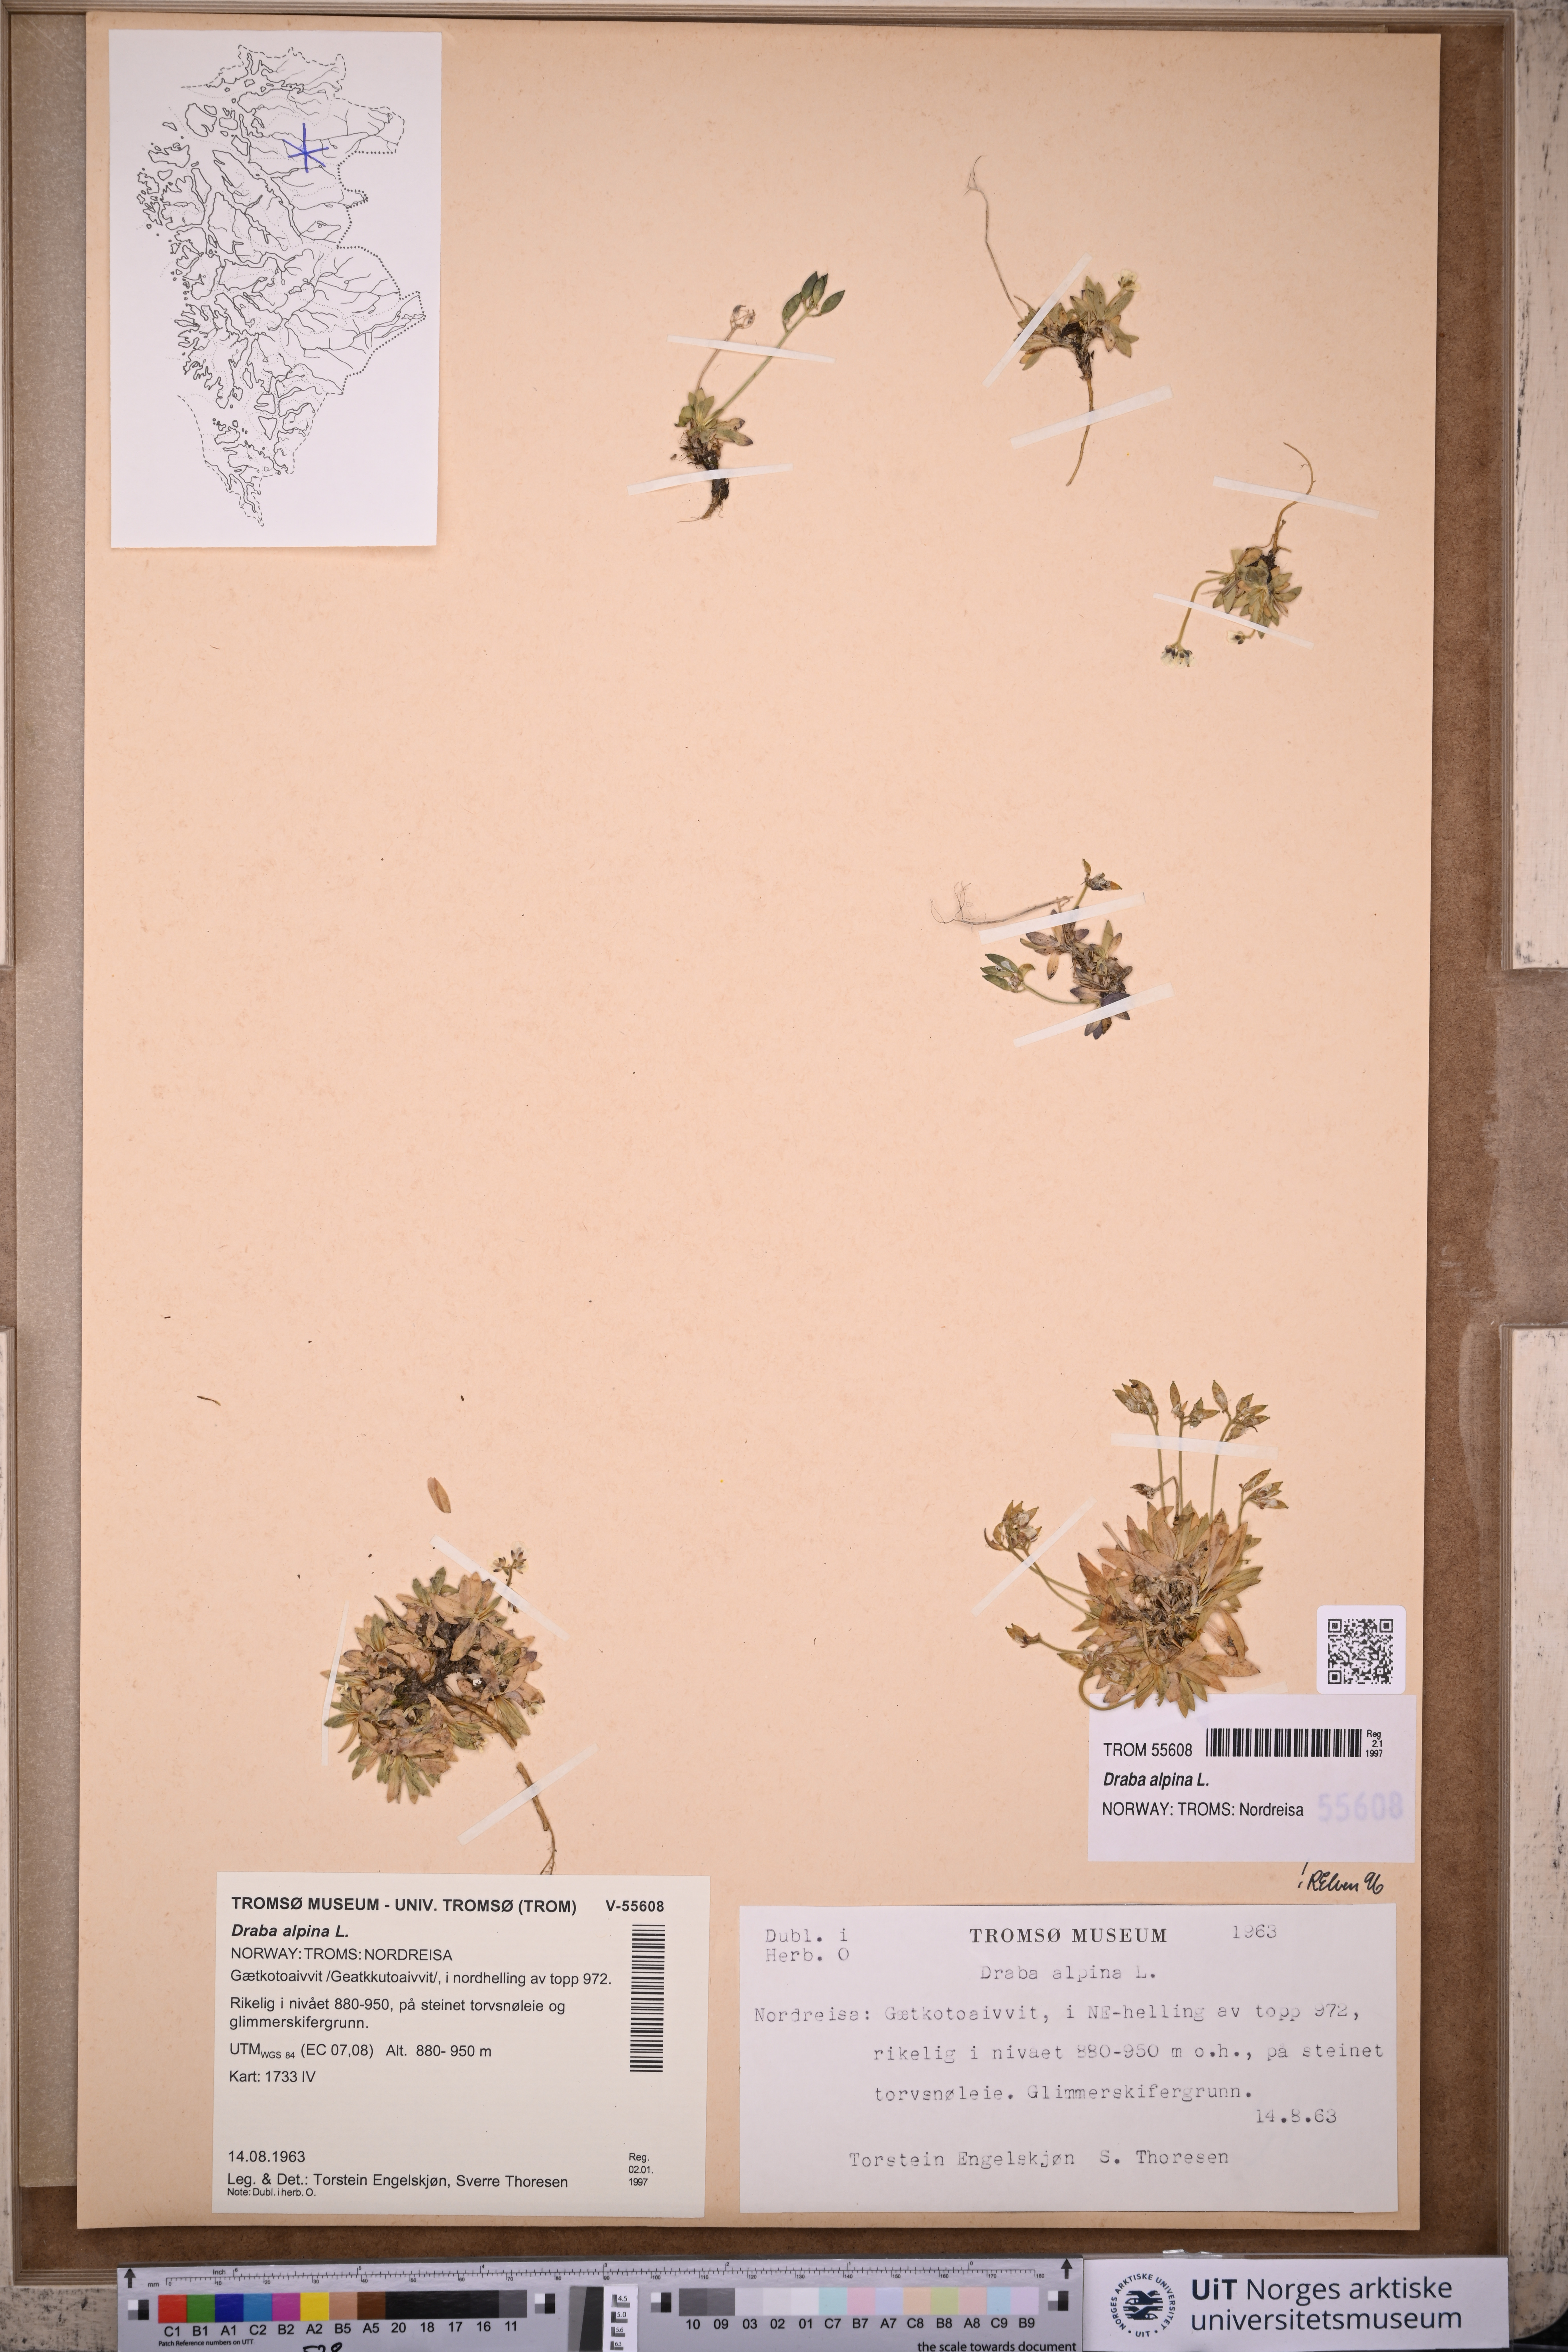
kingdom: Plantae
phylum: Tracheophyta
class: Magnoliopsida
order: Brassicales
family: Brassicaceae
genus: Draba
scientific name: Draba alpina
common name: Alpine draba
